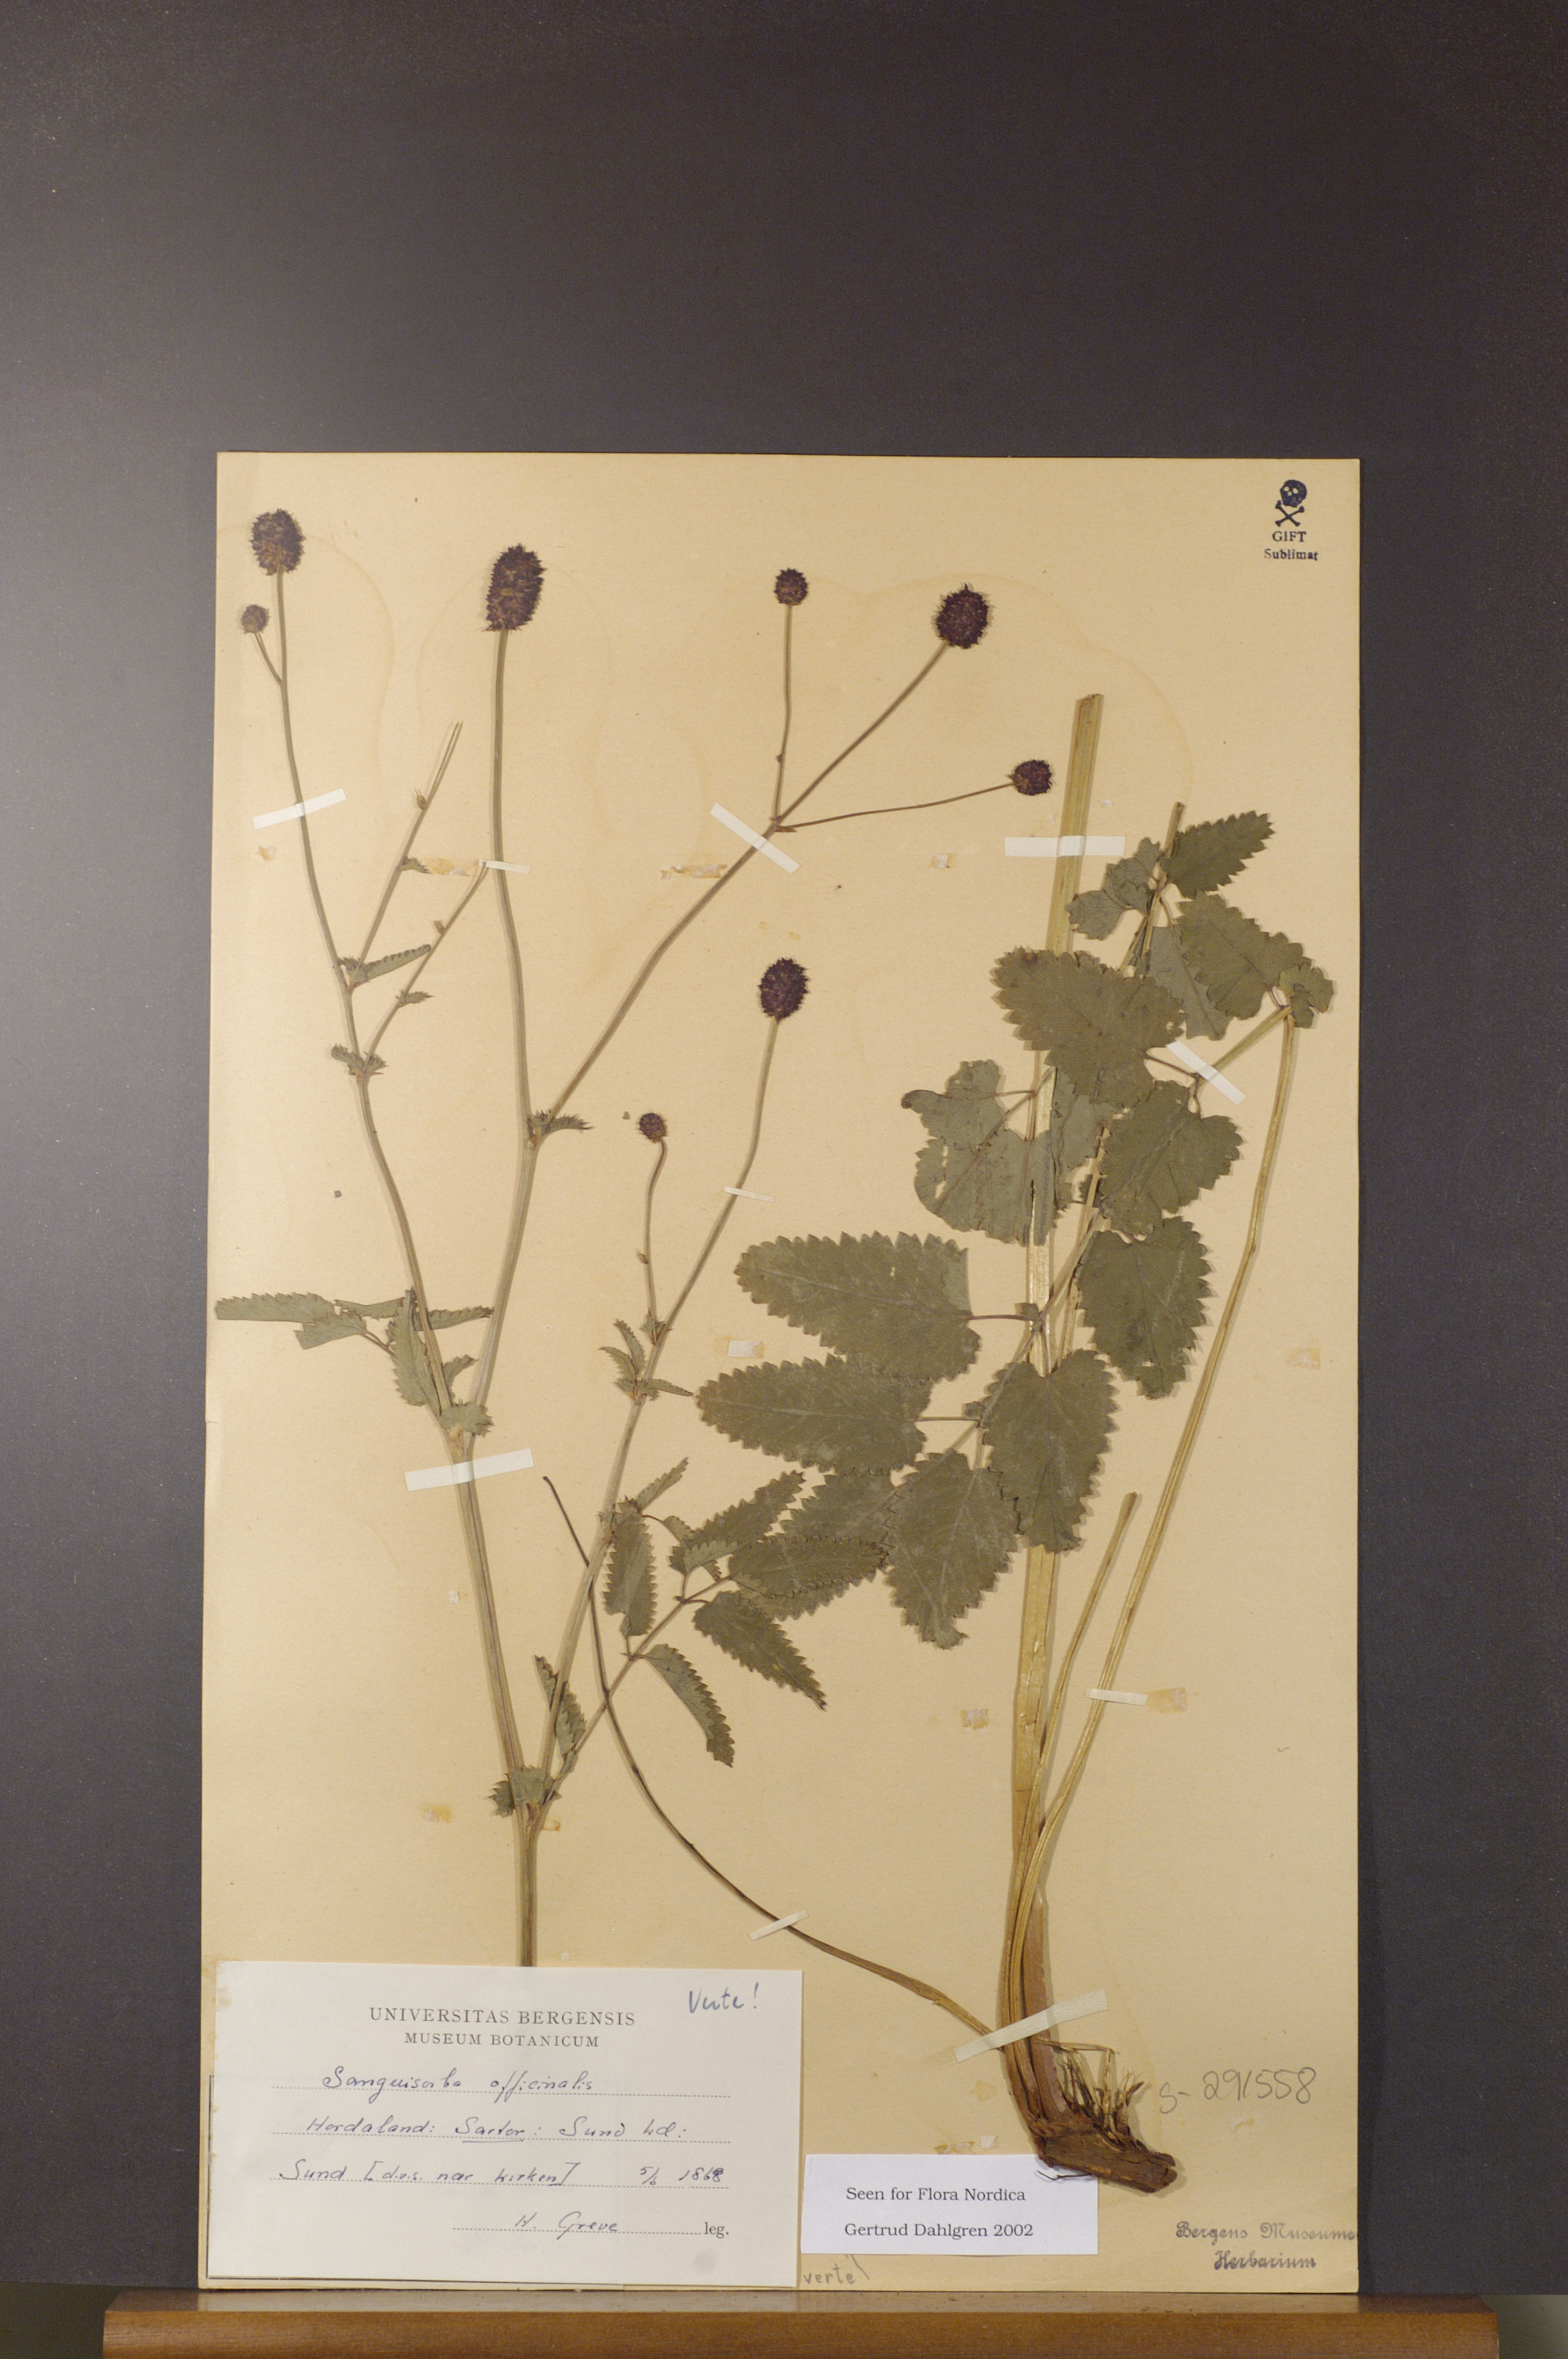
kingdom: Plantae
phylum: Tracheophyta
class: Magnoliopsida
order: Rosales
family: Rosaceae
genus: Sanguisorba
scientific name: Sanguisorba officinalis
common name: Great burnet
